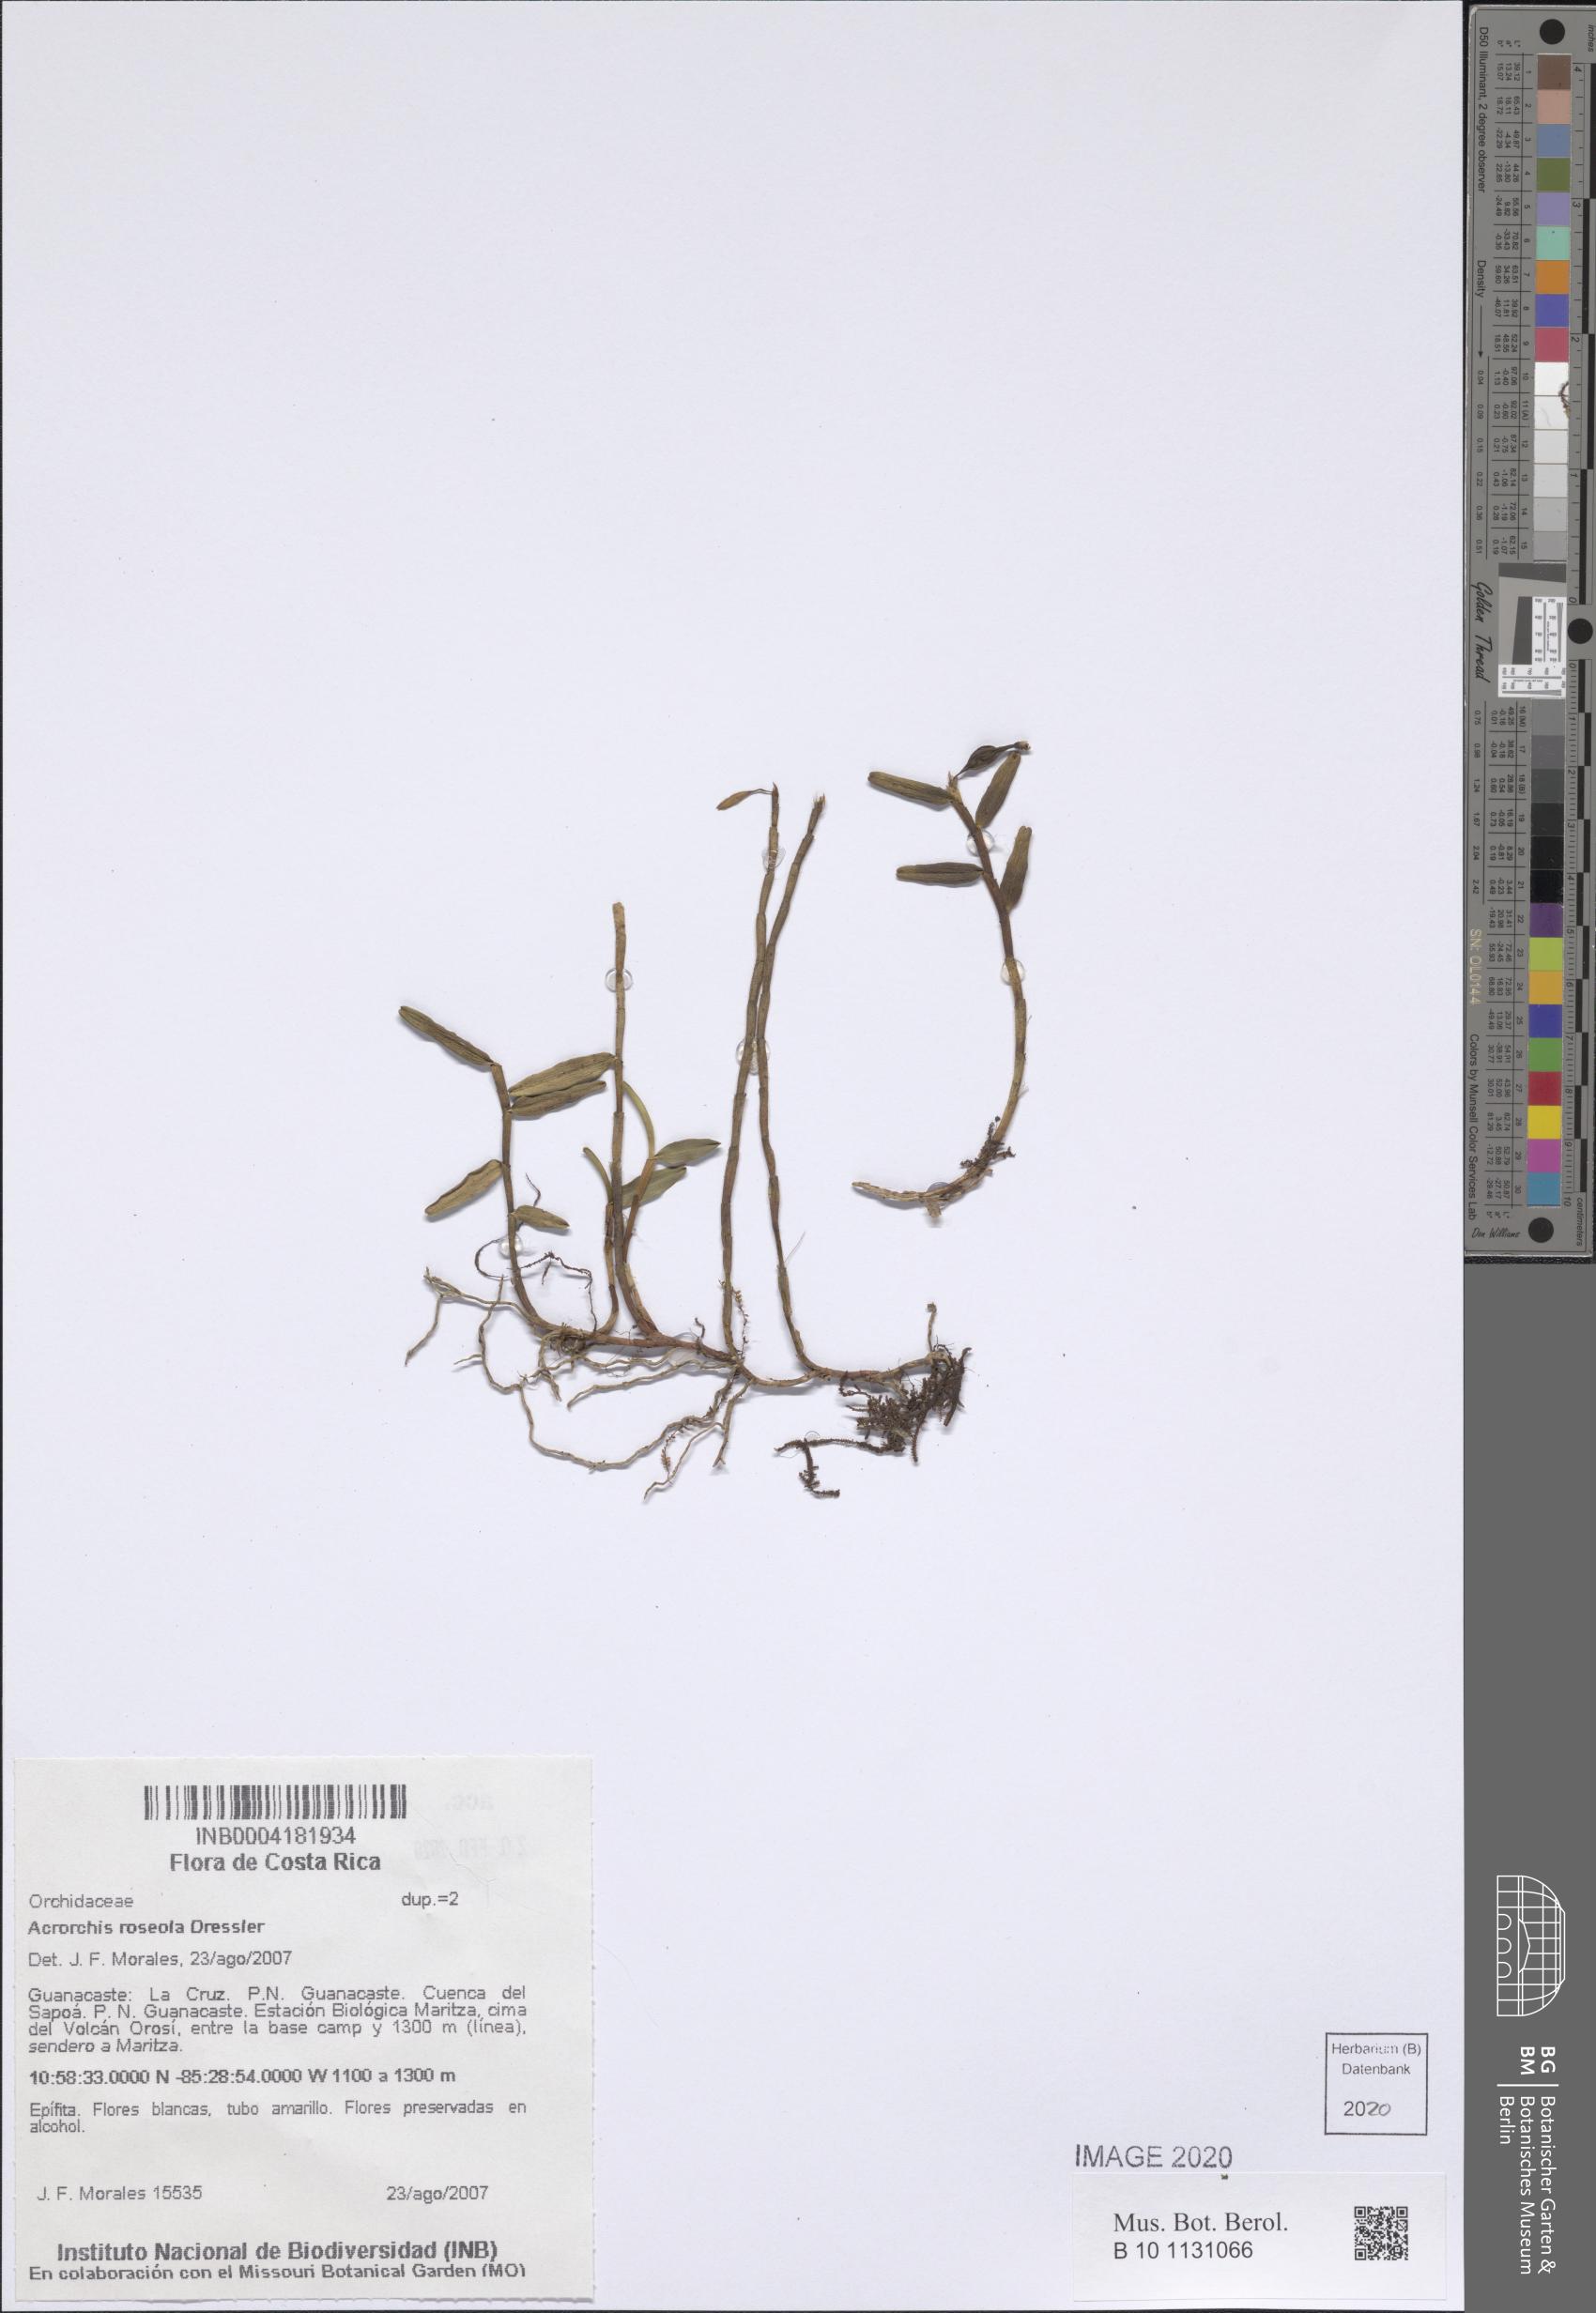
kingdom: Plantae
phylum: Tracheophyta
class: Liliopsida
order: Asparagales
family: Orchidaceae
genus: Acrorchis
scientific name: Acrorchis roseola
